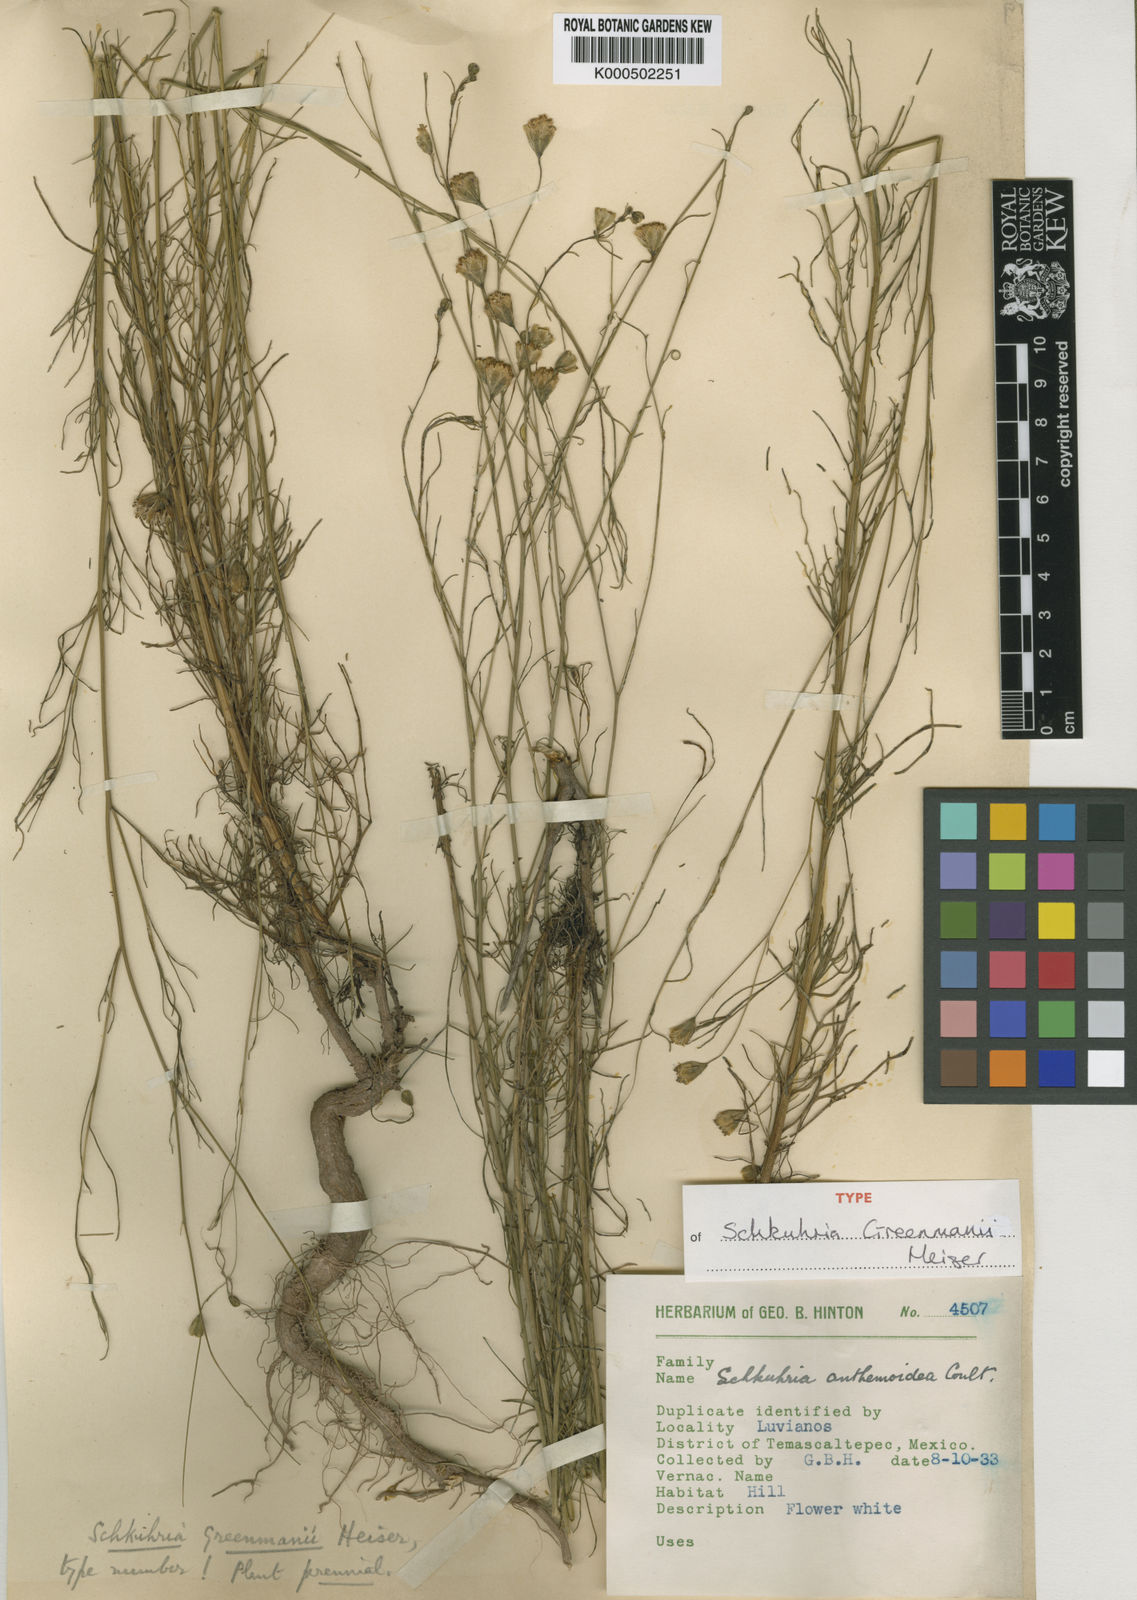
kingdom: Plantae
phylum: Tracheophyta
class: Magnoliopsida
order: Asterales
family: Asteraceae
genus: Hymenothrix
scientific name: Hymenothrix greenmanii
